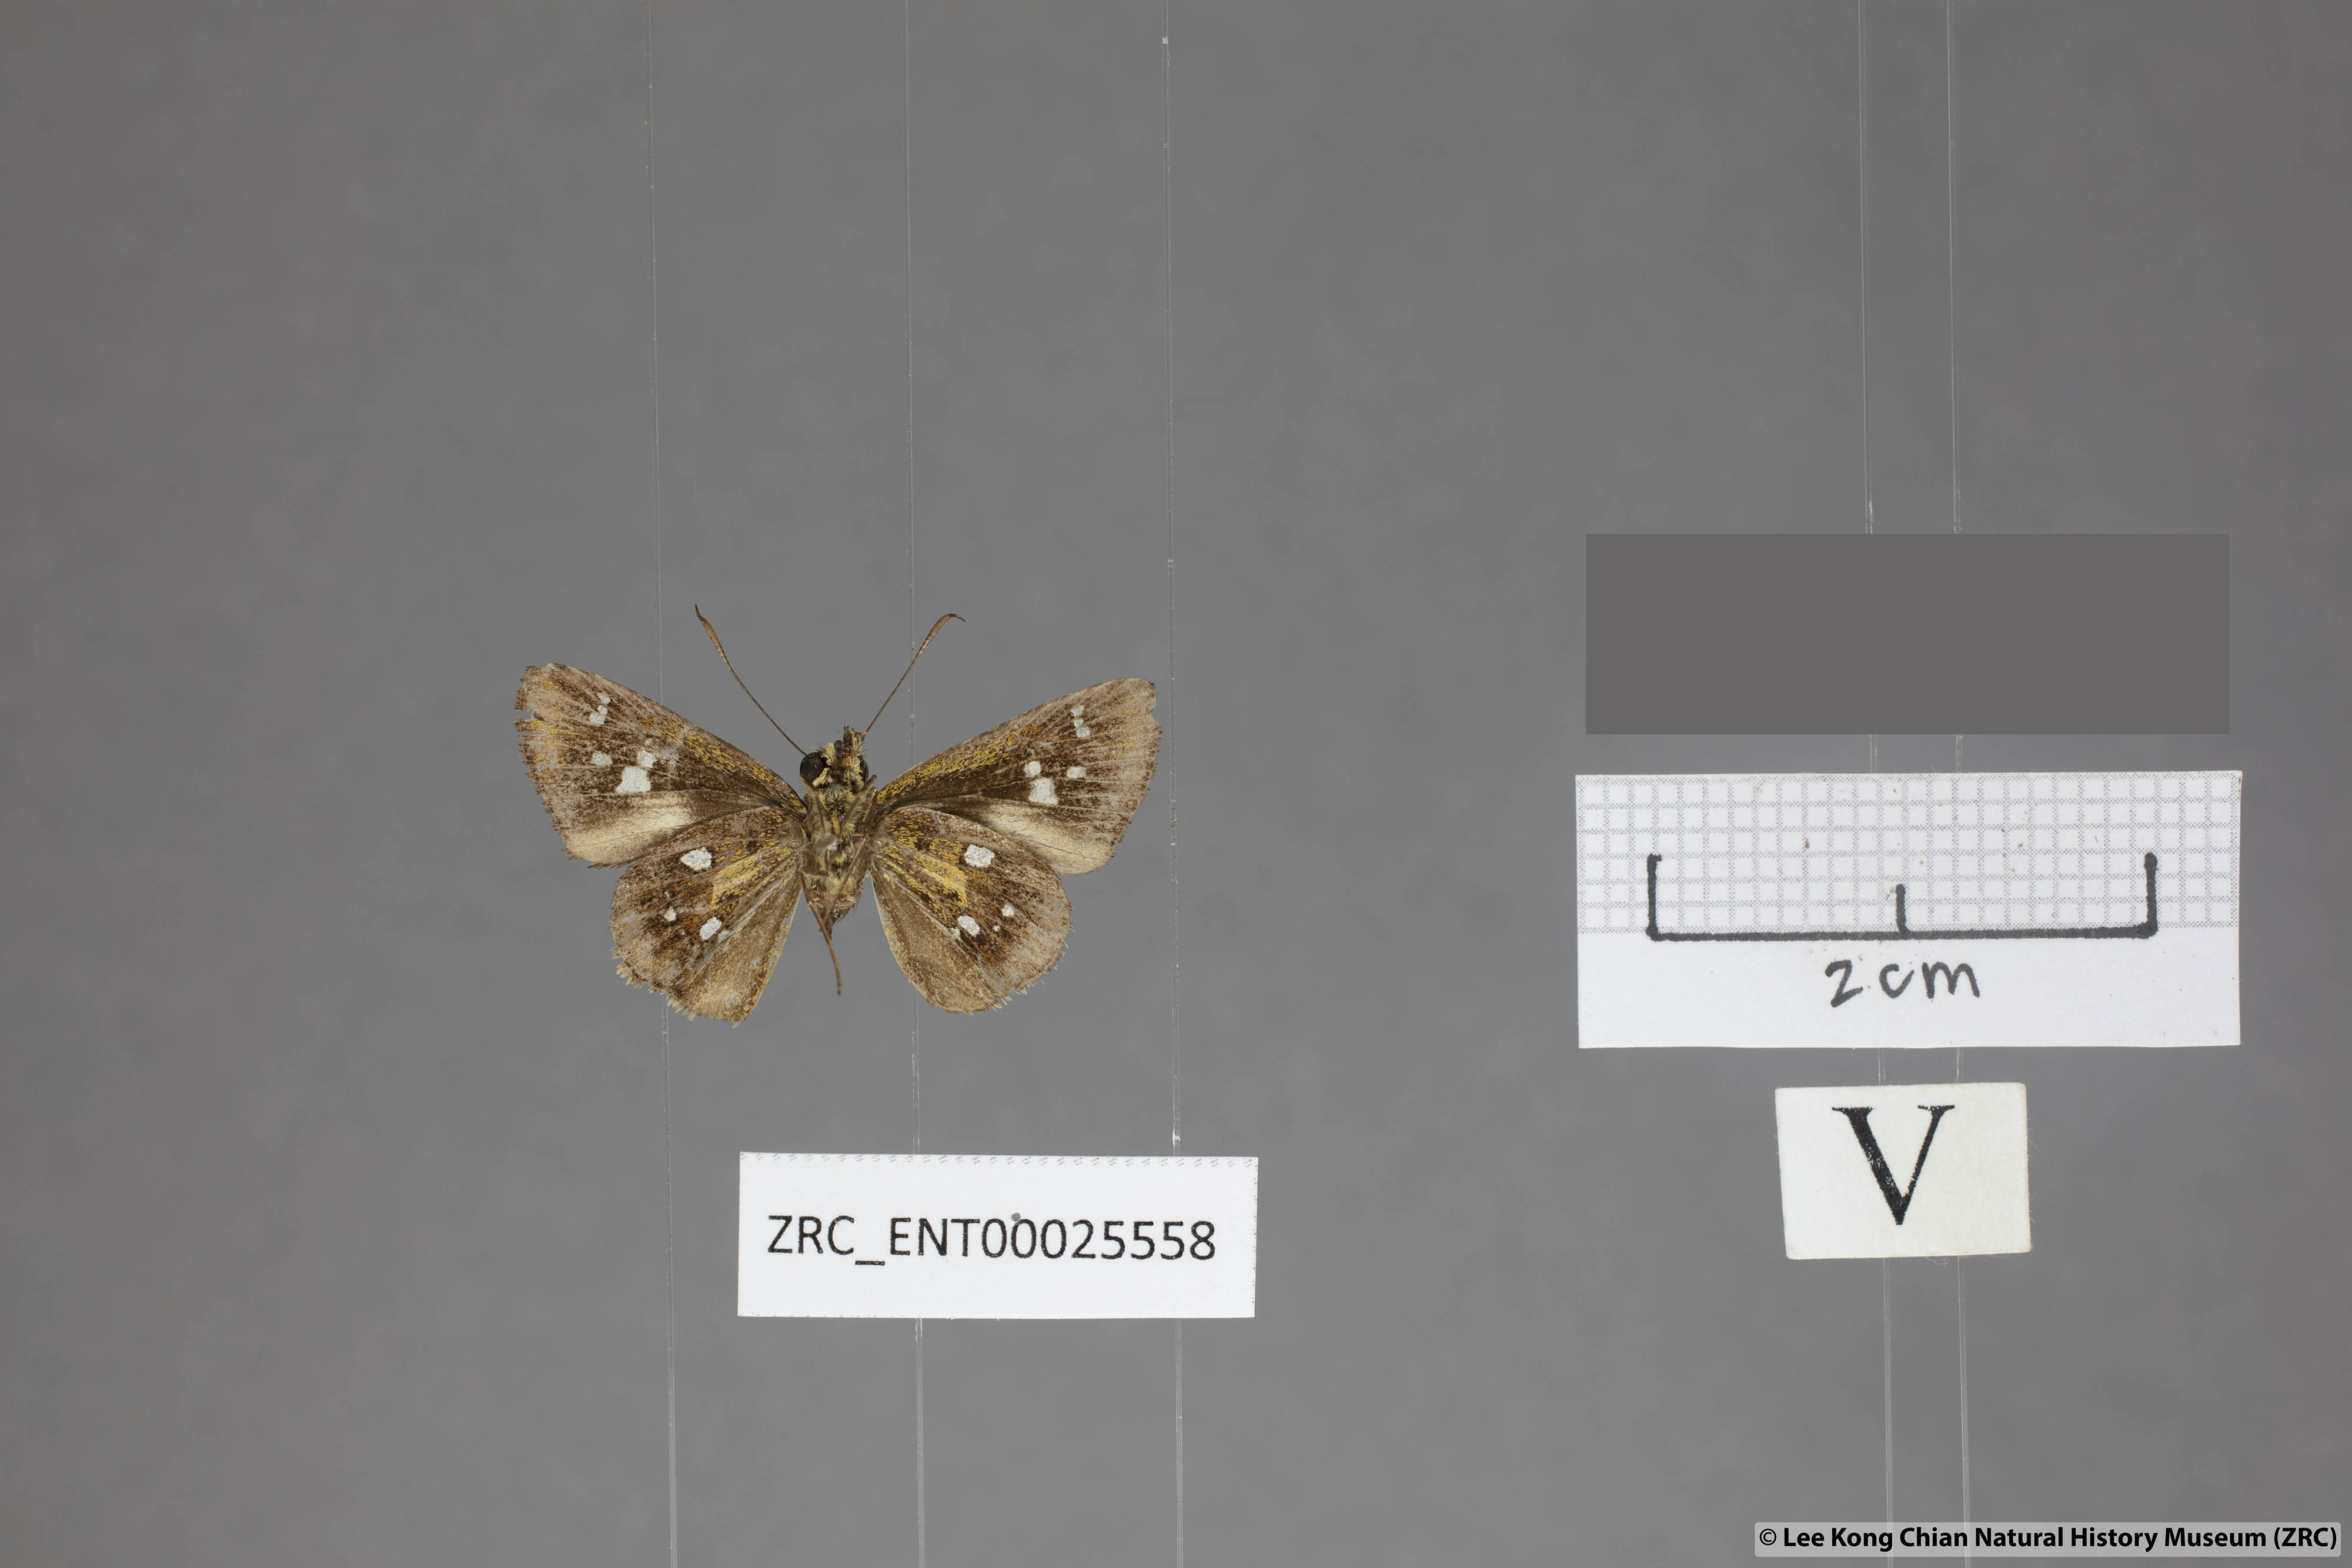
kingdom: Animalia
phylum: Arthropoda
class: Insecta
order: Lepidoptera
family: Hesperiidae
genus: Scobura
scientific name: Scobura woolletti
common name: Brown forest bob
